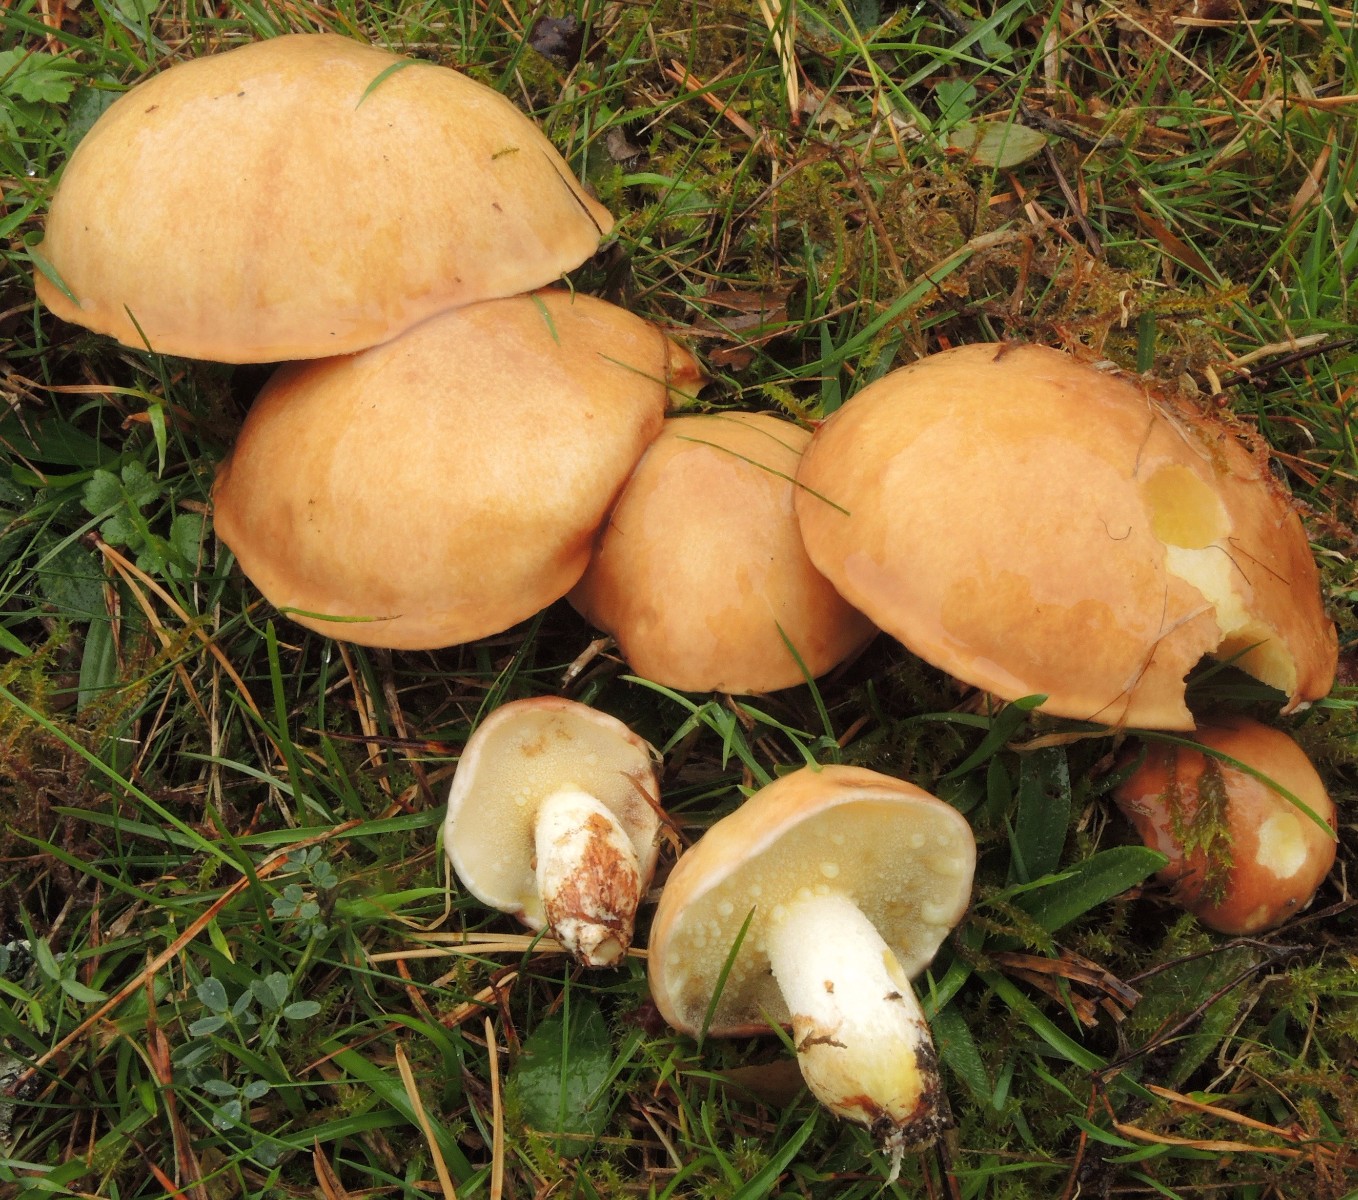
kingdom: Fungi
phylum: Basidiomycota
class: Agaricomycetes
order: Boletales
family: Suillaceae
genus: Suillus
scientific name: Suillus granulatus
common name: kornet slimrørhat
